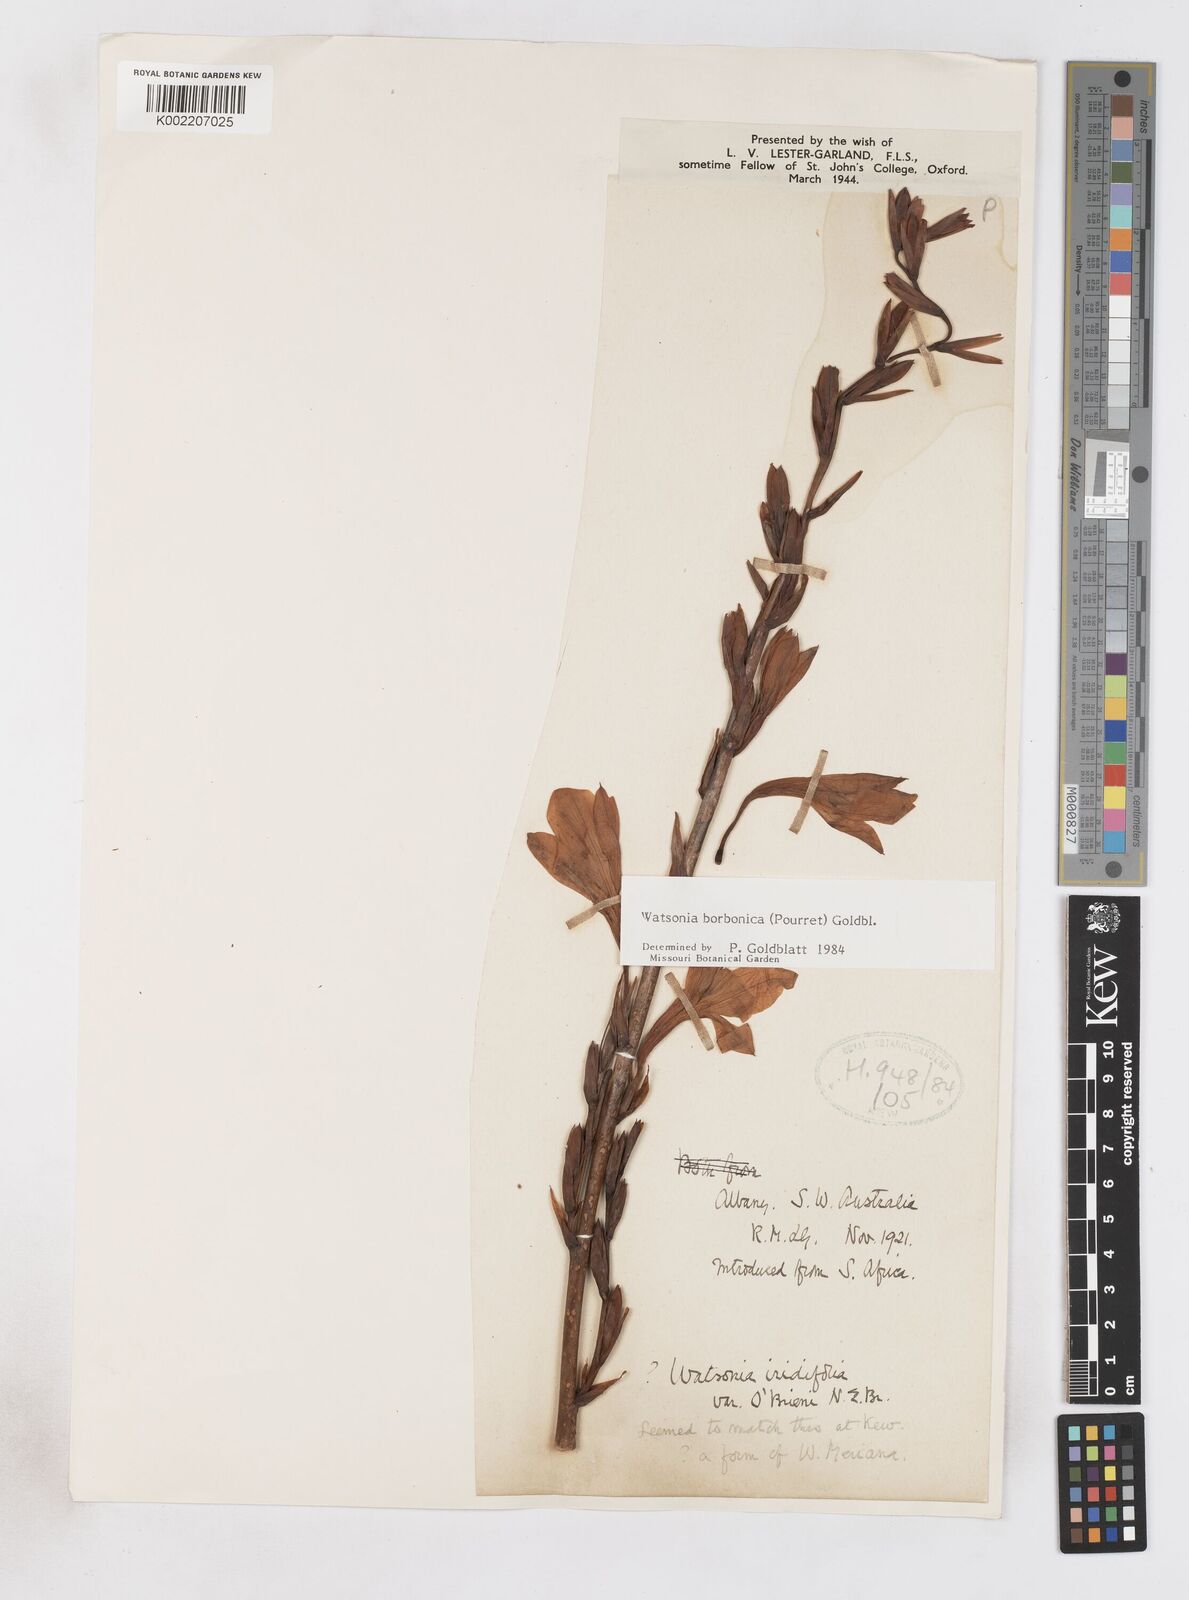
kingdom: Plantae
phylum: Tracheophyta
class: Liliopsida
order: Asparagales
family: Iridaceae
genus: Watsonia
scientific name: Watsonia borbonica
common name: Bugle-lily
